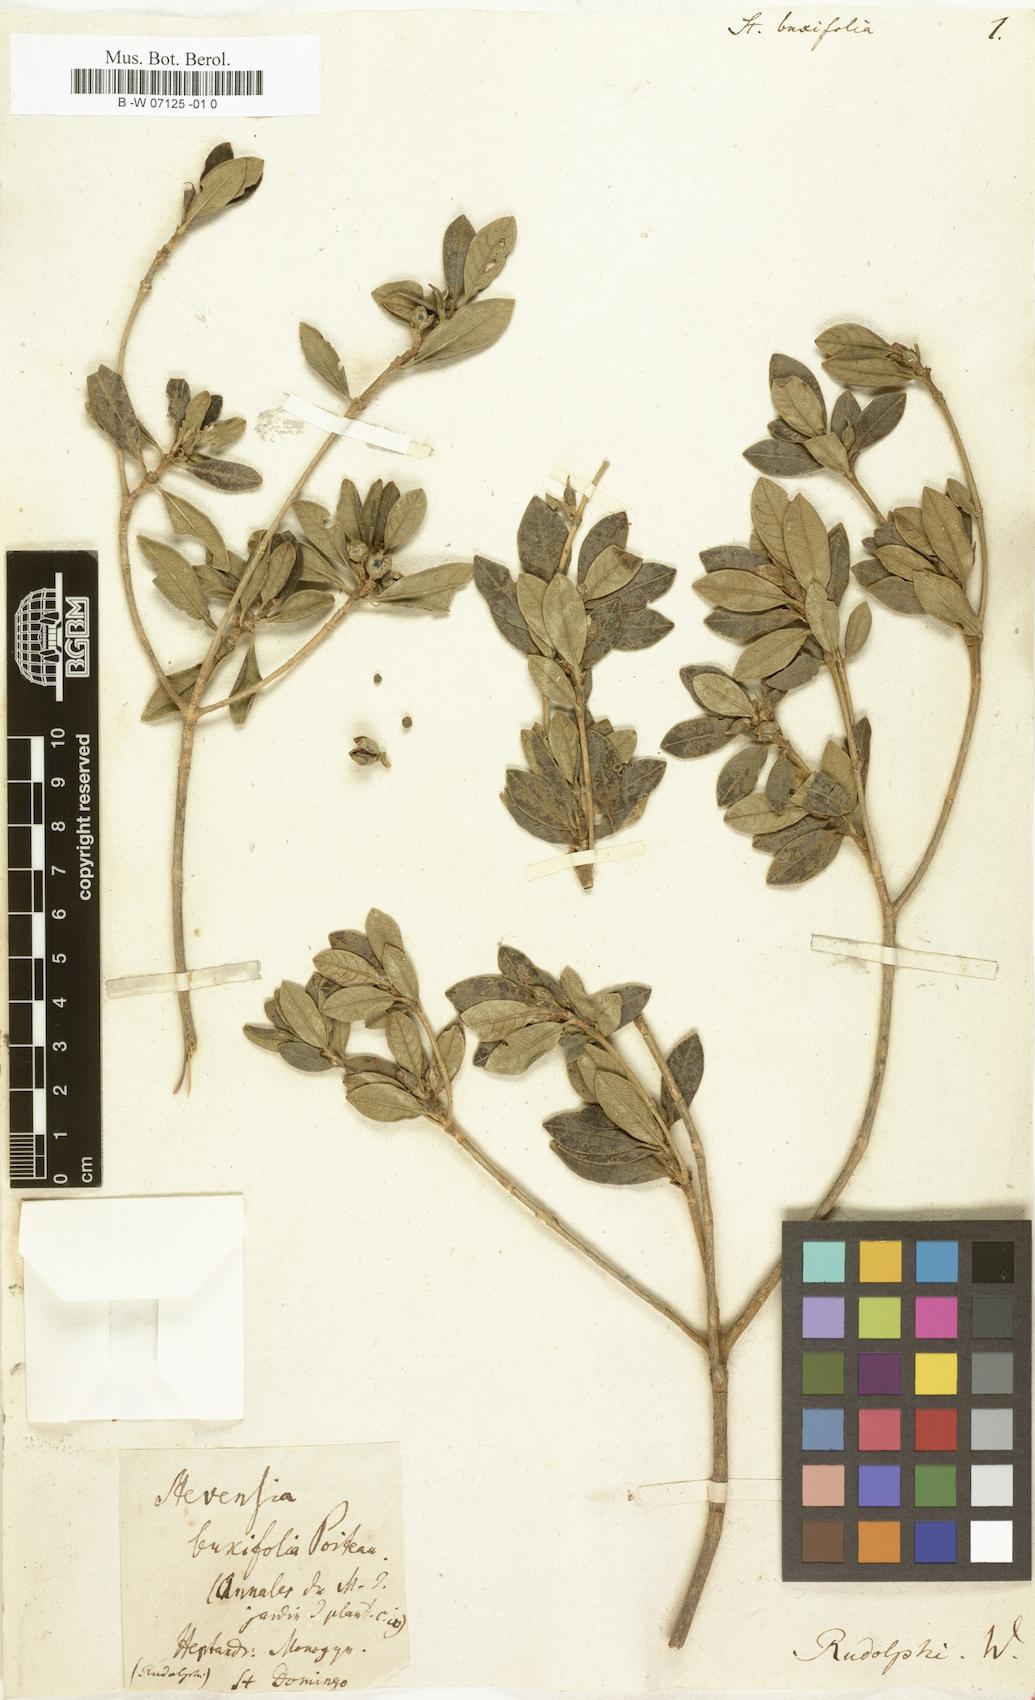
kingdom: Plantae
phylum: Tracheophyta
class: Magnoliopsida
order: Gentianales
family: Rubiaceae
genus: Stevensia
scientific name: Stevensia buxifolia
